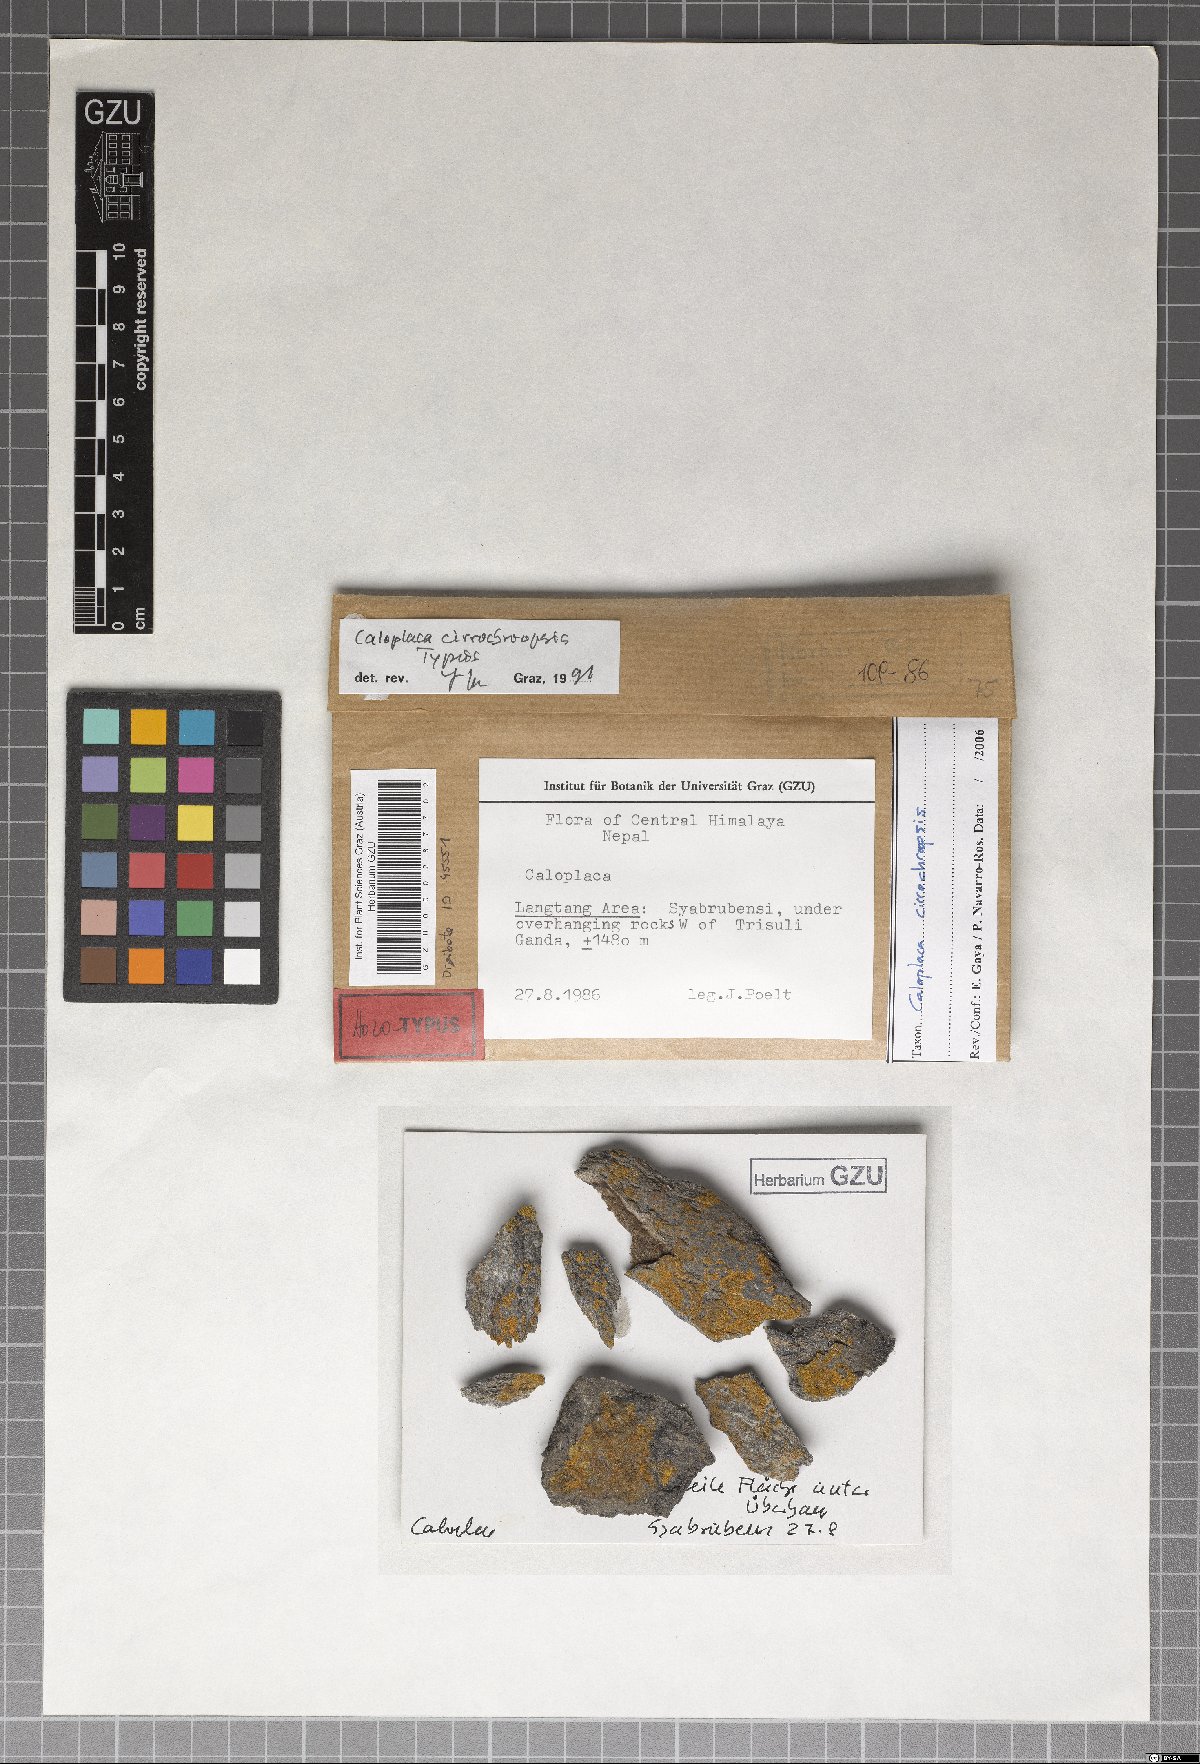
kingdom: Fungi
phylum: Ascomycota
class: Lecanoromycetes
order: Teloschistales
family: Teloschistaceae
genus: Caloplaca
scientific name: Caloplaca
